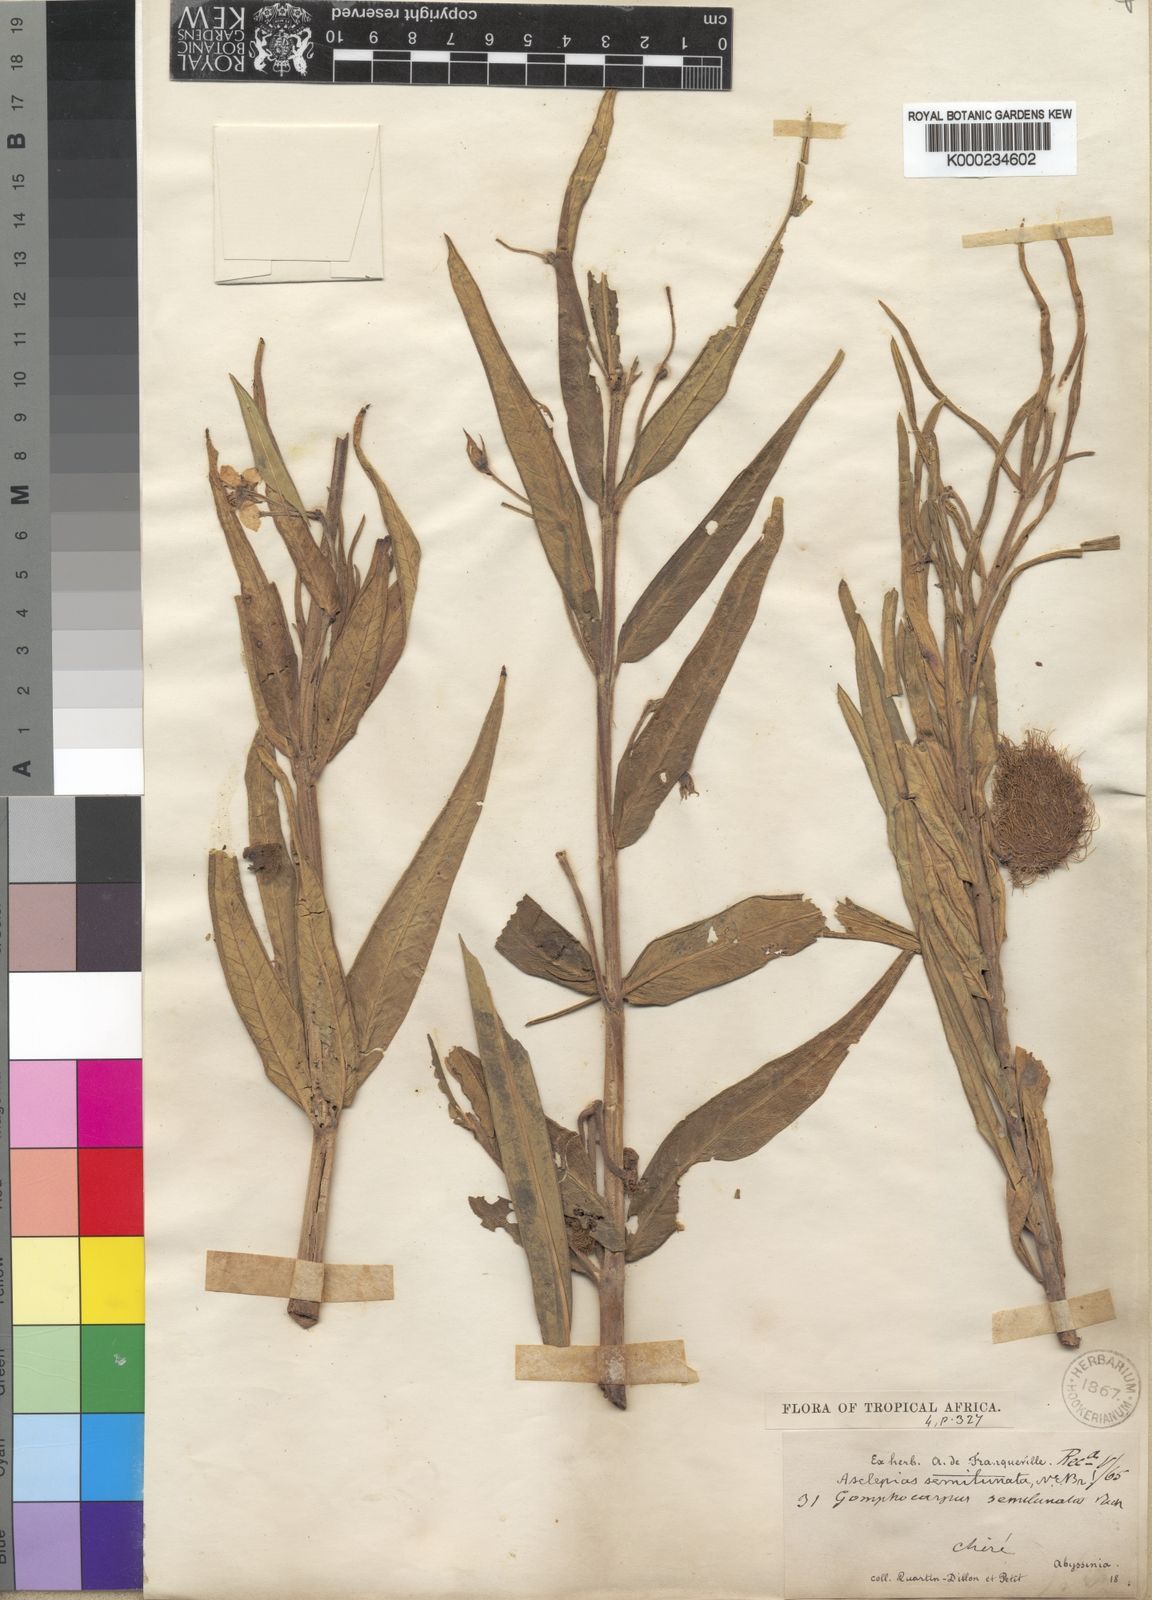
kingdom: Plantae
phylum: Tracheophyta
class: Magnoliopsida
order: Gentianales
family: Apocynaceae
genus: Gomphocarpus
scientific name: Gomphocarpus semilunatus
